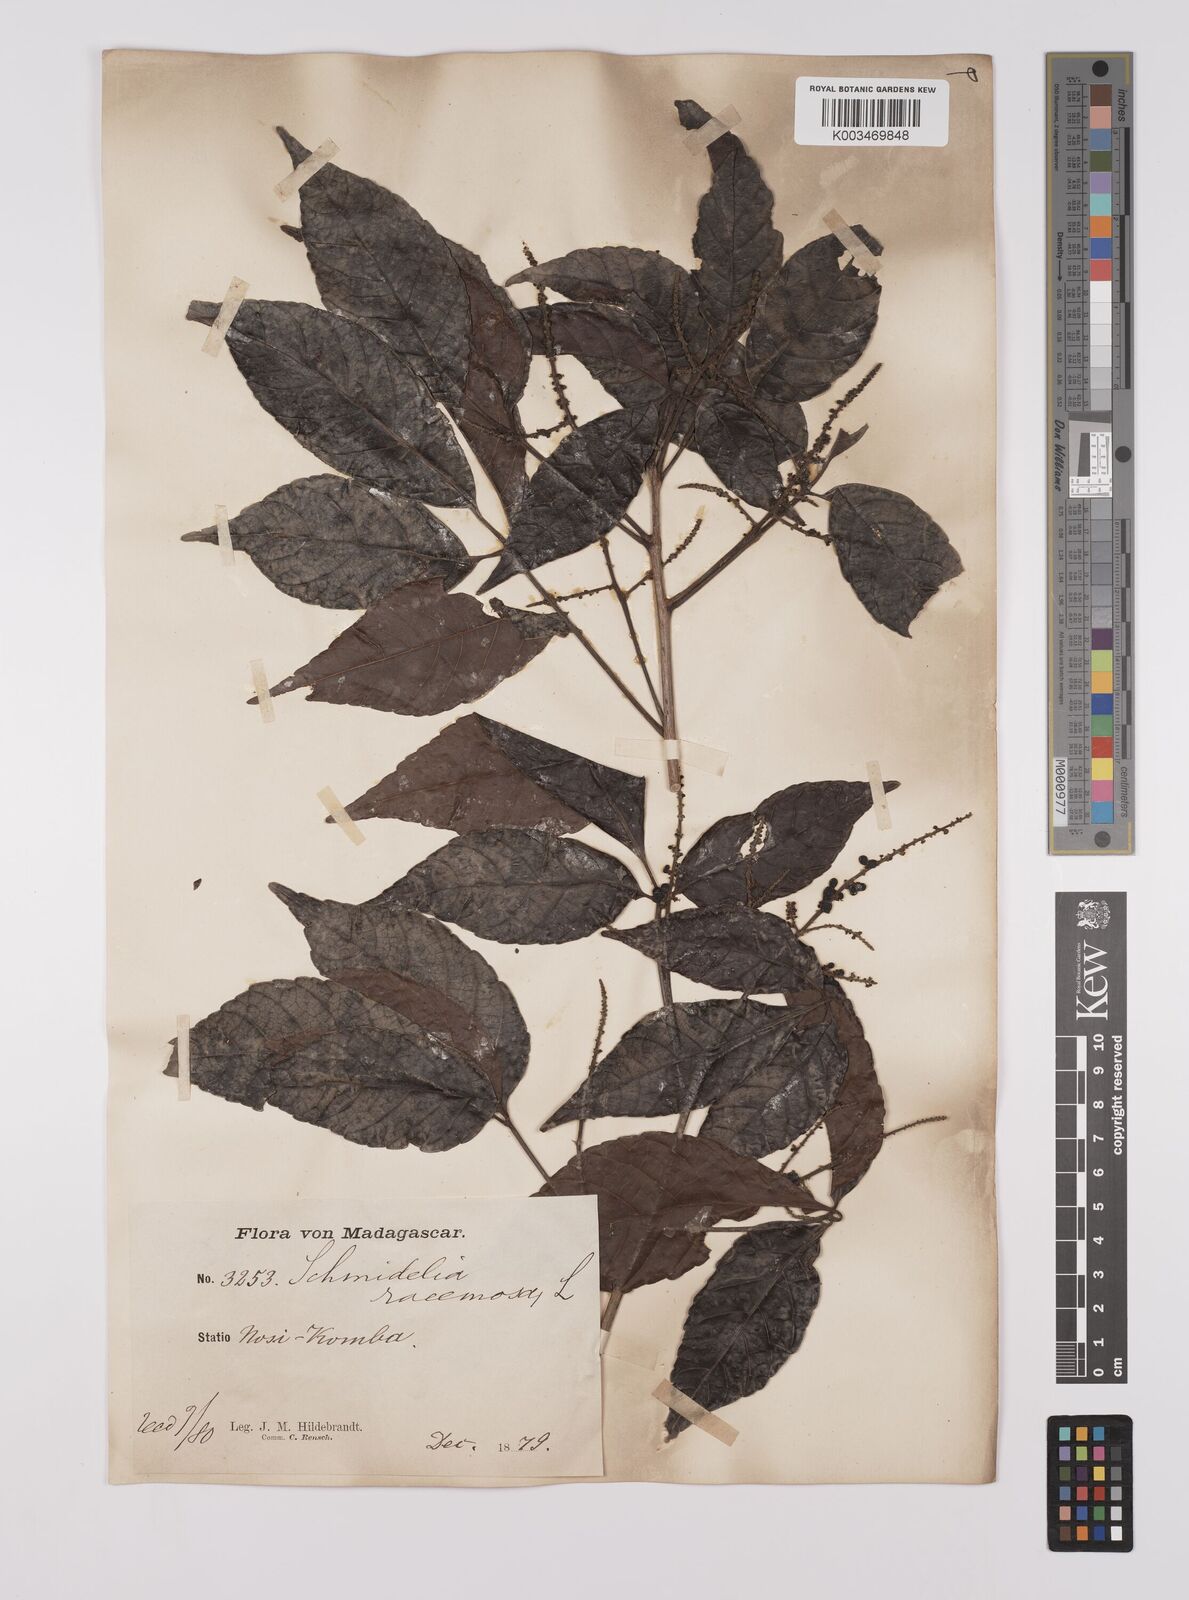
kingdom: Plantae
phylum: Tracheophyta
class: Magnoliopsida
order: Sapindales
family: Sapindaceae
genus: Allophylus
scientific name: Allophylus
